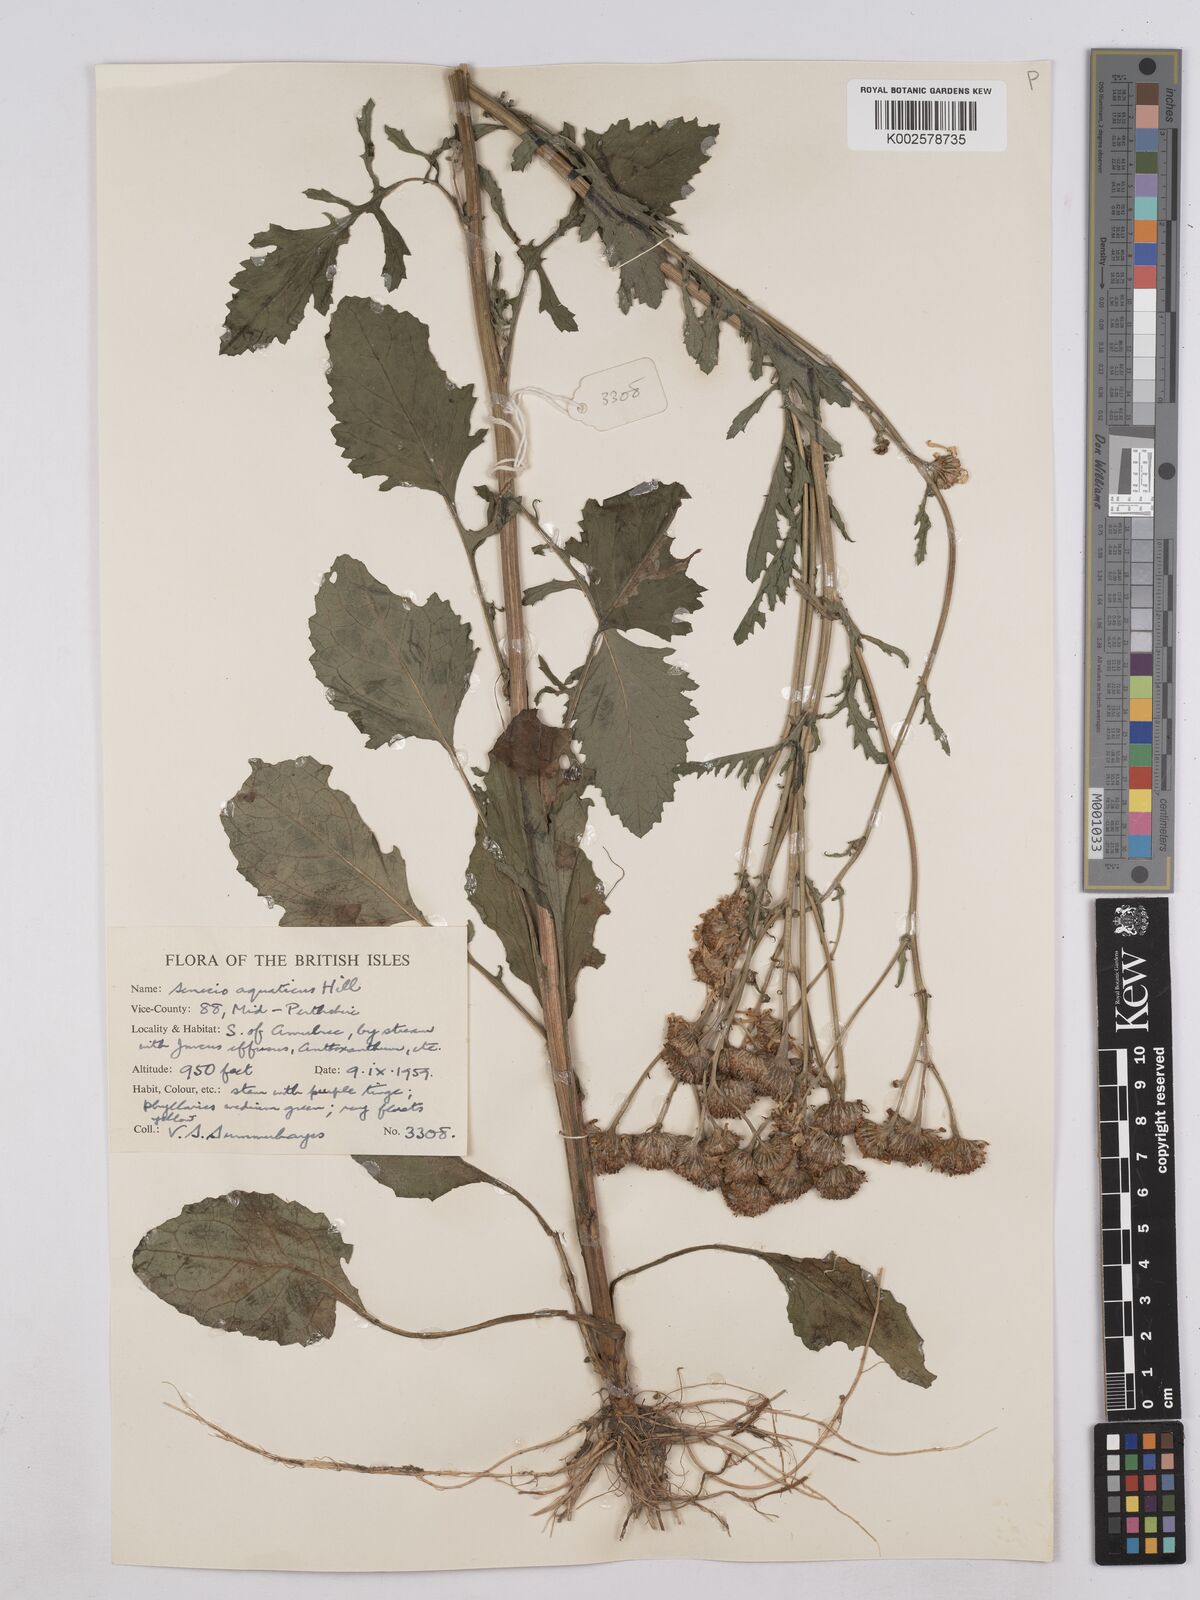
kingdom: Plantae
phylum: Tracheophyta
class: Magnoliopsida
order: Asterales
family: Asteraceae
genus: Jacobaea
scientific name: Jacobaea aquatica
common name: Water ragwort
